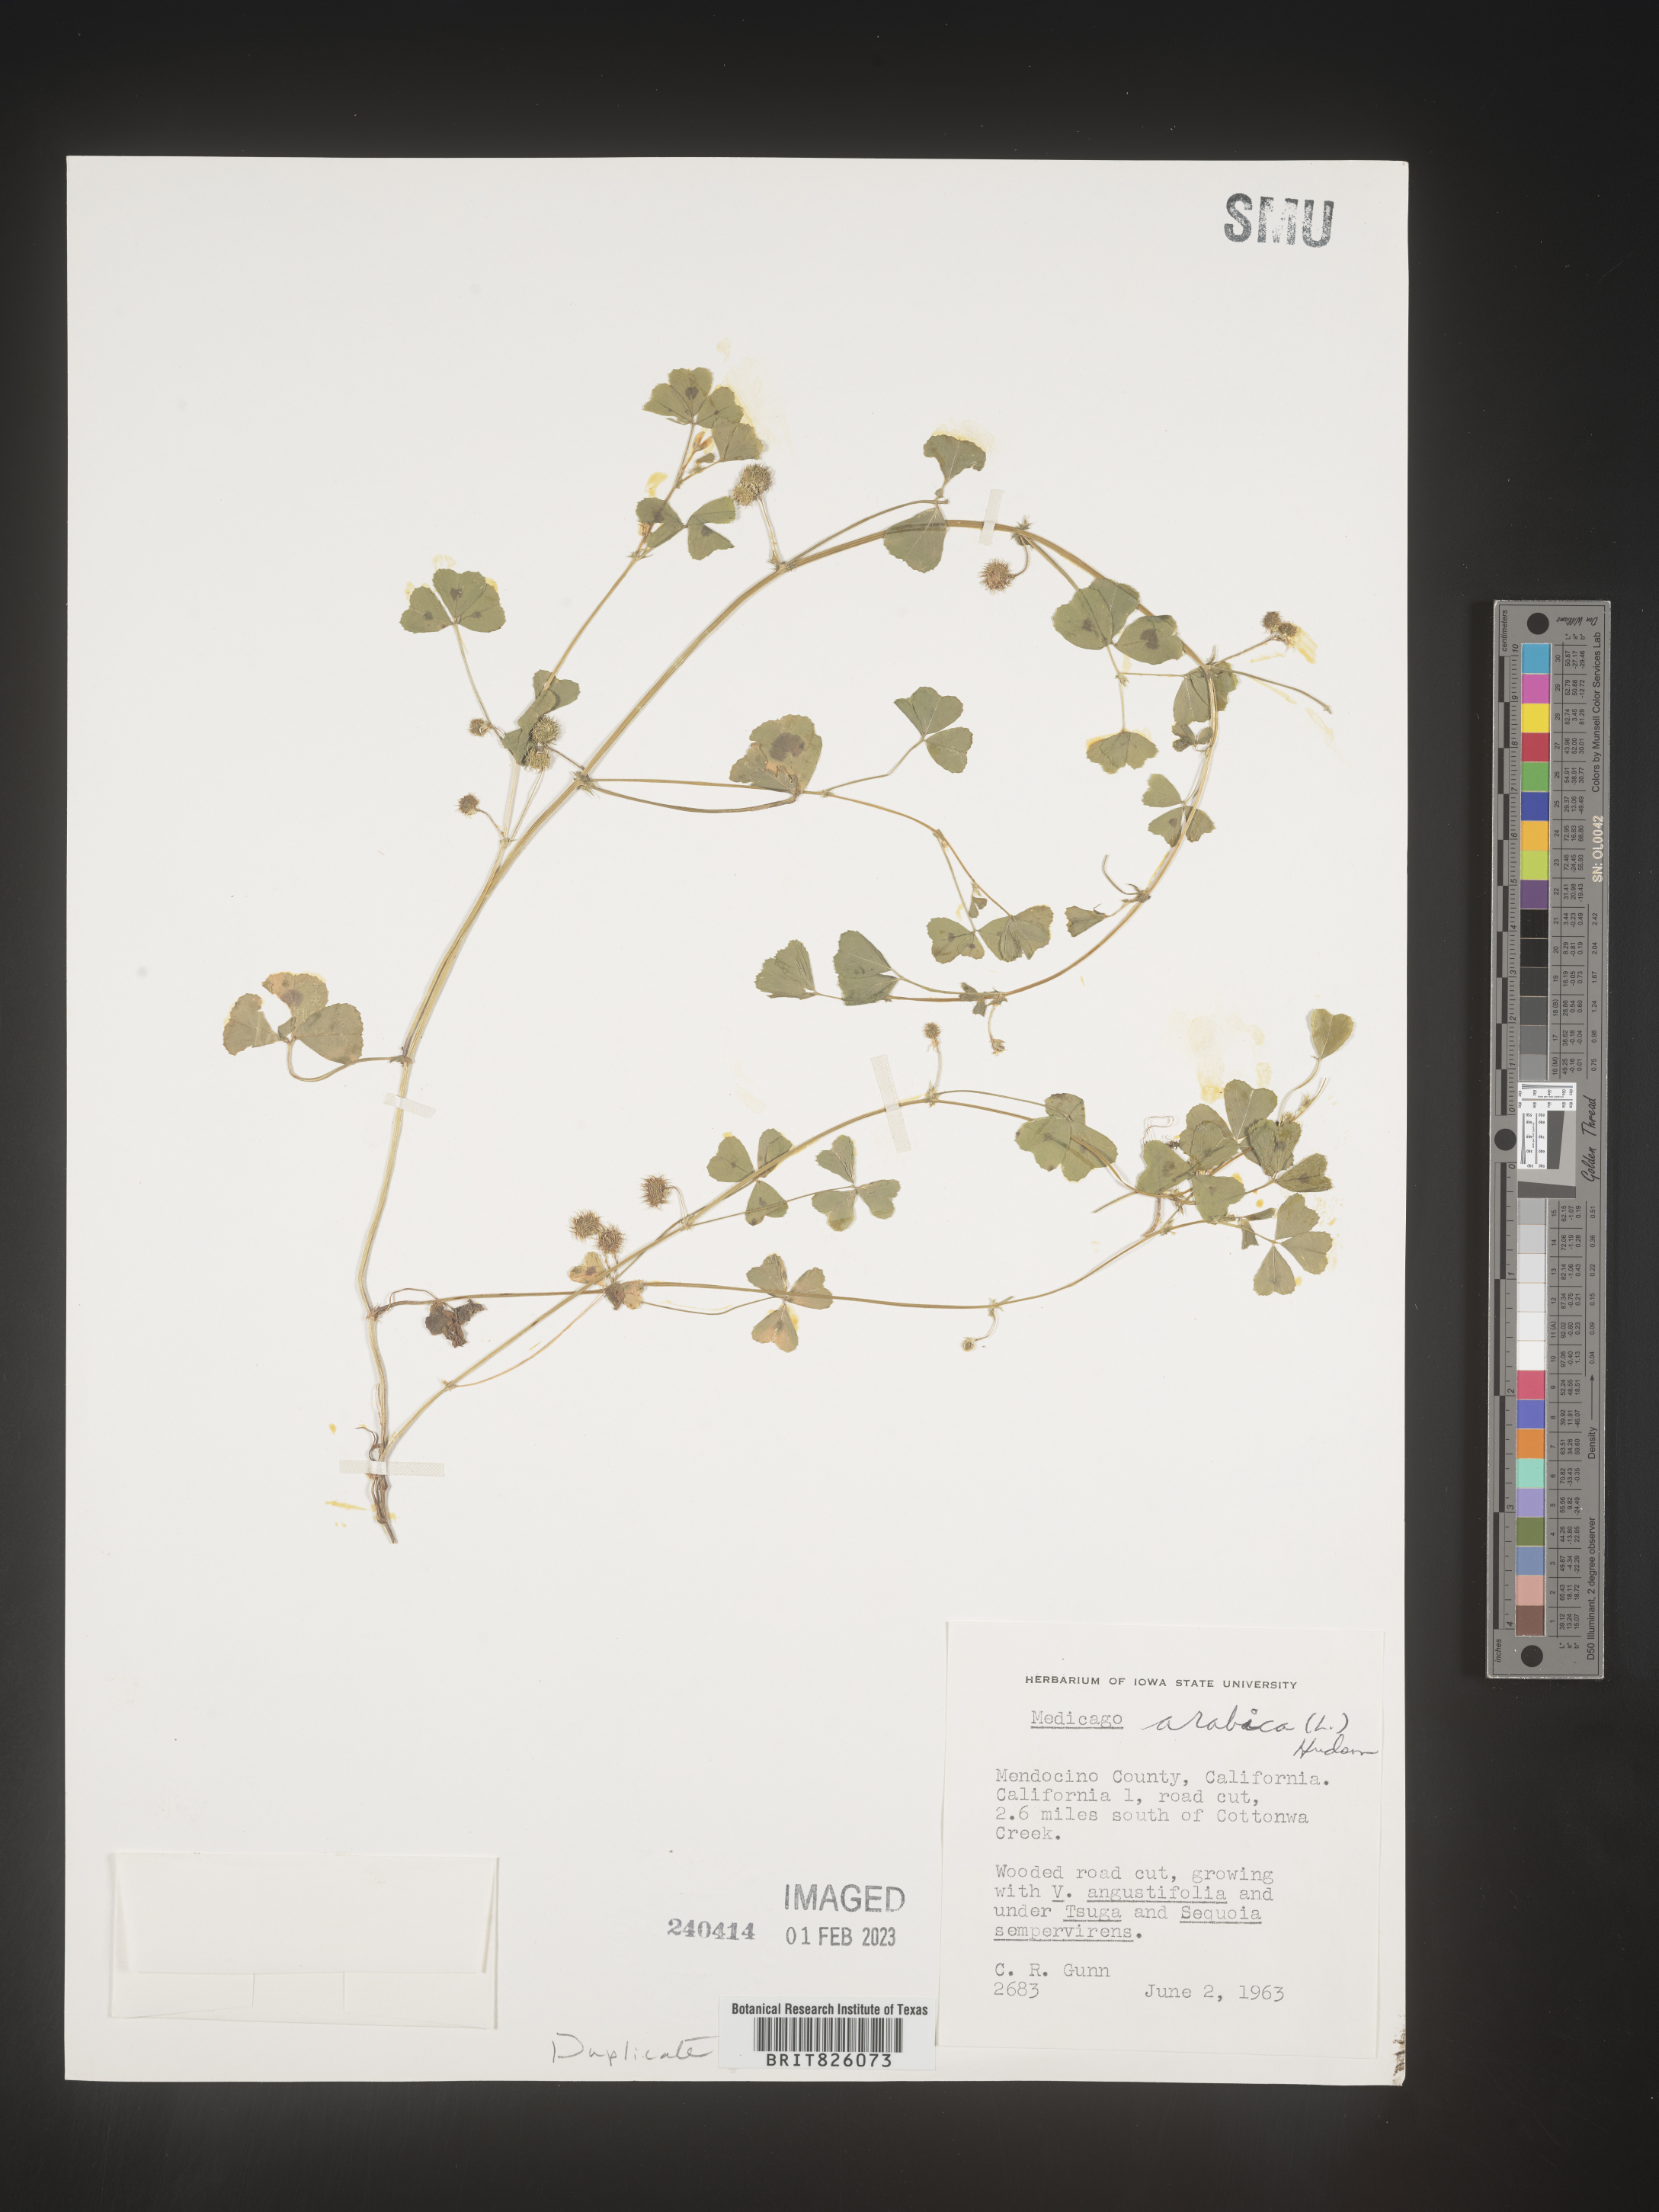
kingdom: Plantae
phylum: Tracheophyta
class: Magnoliopsida
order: Fabales
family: Fabaceae
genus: Medicago
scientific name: Medicago arabica
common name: Spotted medick
